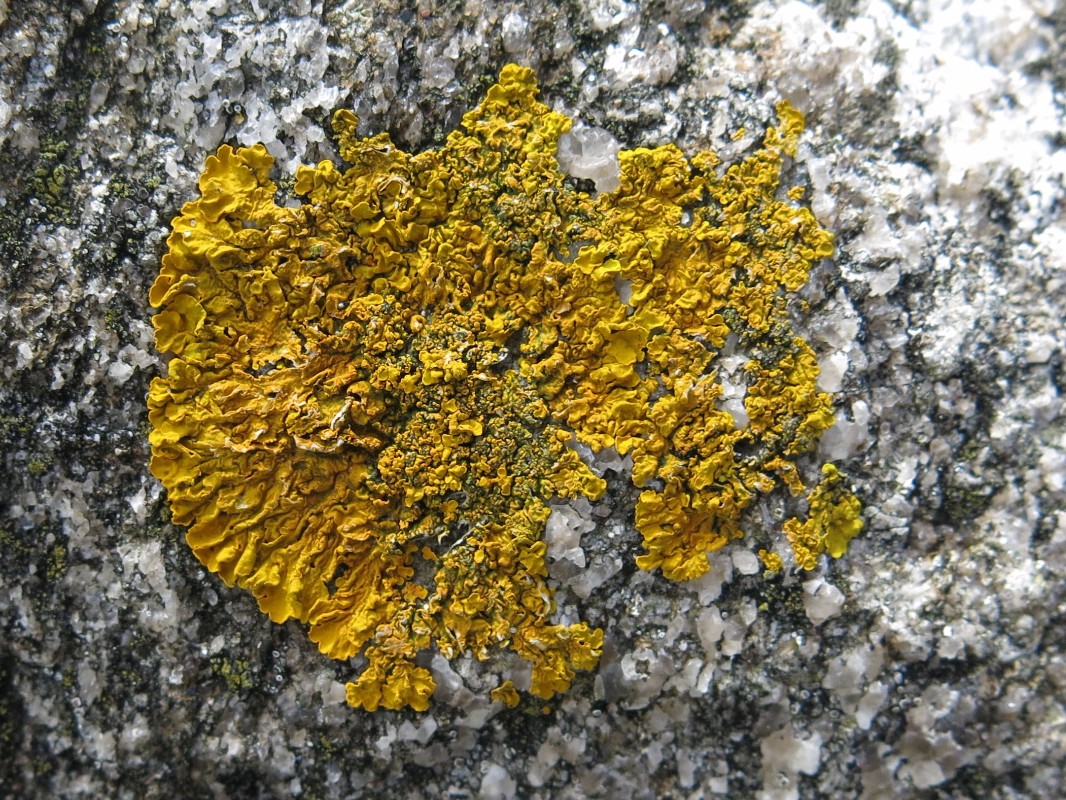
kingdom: Fungi
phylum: Ascomycota
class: Lecanoromycetes
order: Teloschistales
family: Teloschistaceae
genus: Xanthoria
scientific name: Xanthoria aureola
